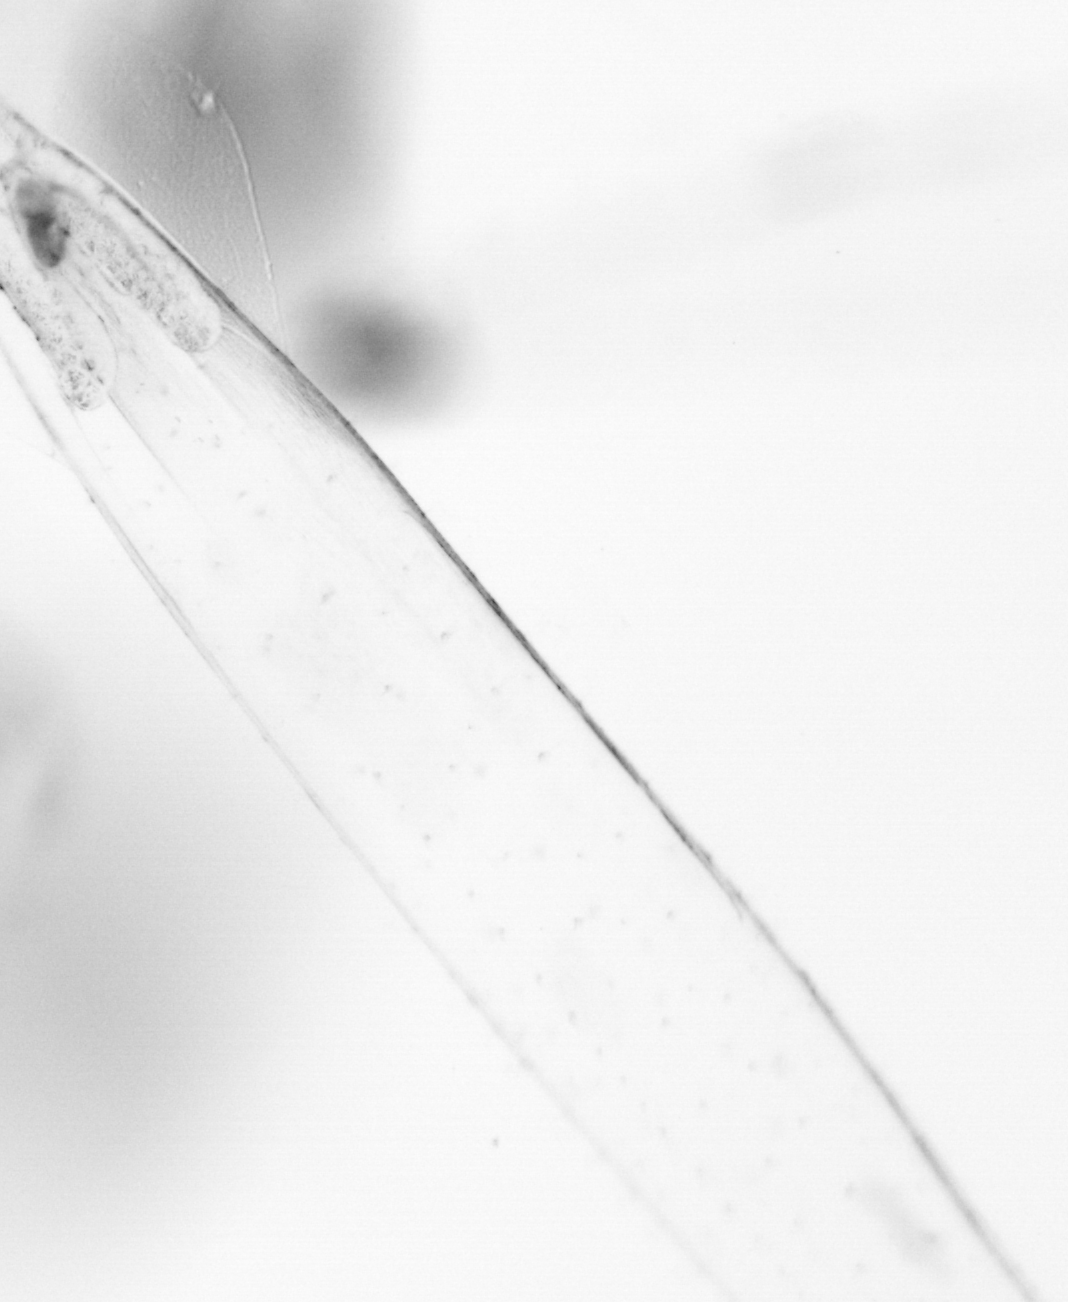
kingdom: Animalia
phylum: Chaetognatha
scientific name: Chaetognatha
